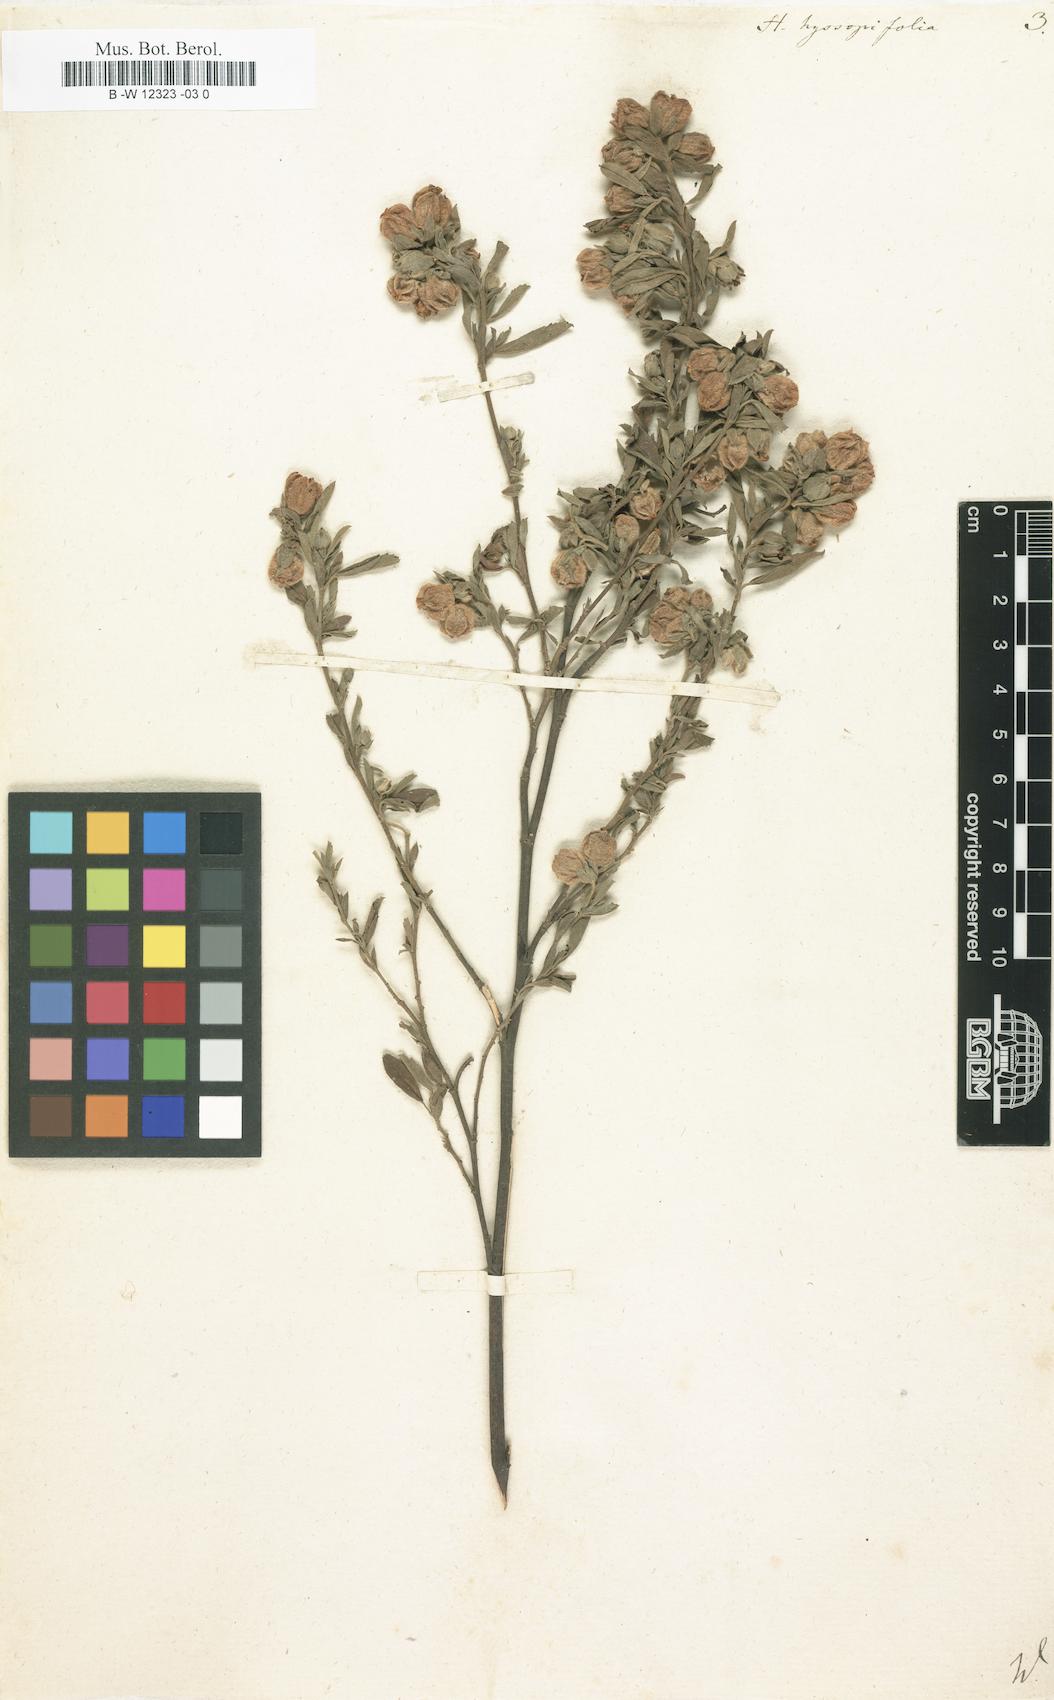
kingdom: Plantae
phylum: Tracheophyta
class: Magnoliopsida
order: Malvales
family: Malvaceae
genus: Hermannia
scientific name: Hermannia hyssopifolia
